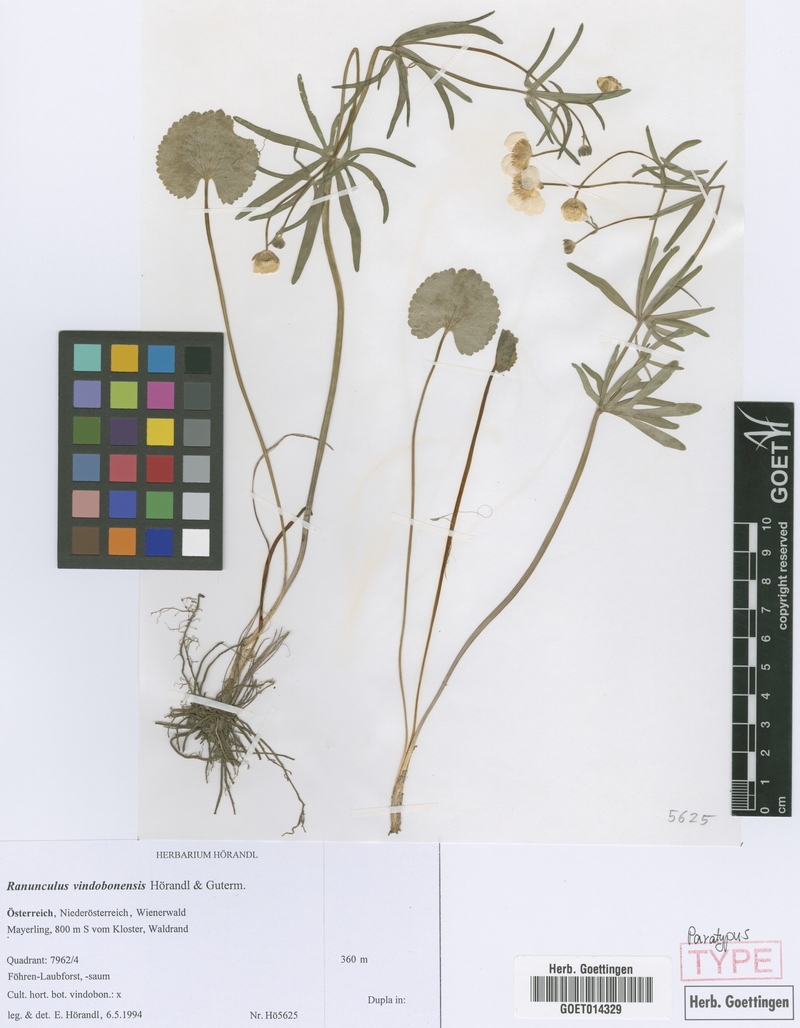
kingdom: Plantae
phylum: Tracheophyta
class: Magnoliopsida
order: Ranunculales
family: Ranunculaceae
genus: Ranunculus
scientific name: Ranunculus vindobonensis
